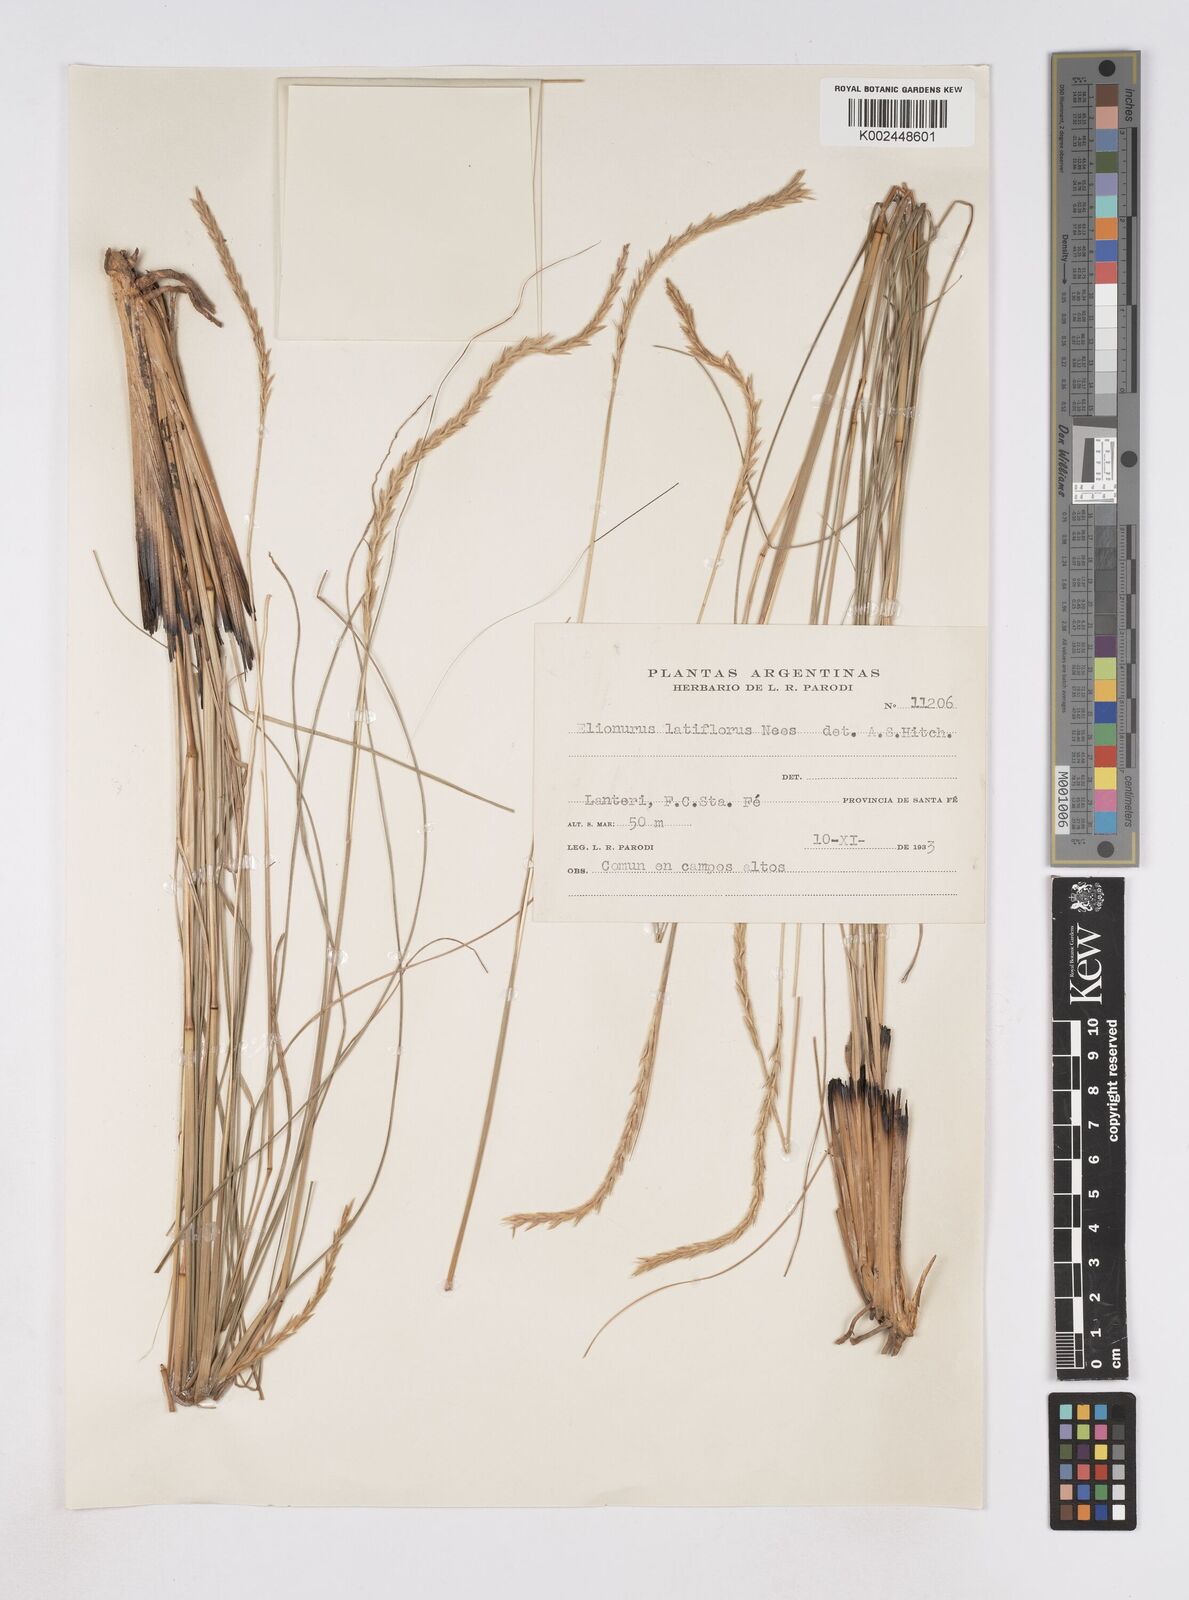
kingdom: Plantae
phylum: Tracheophyta
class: Liliopsida
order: Poales
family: Poaceae
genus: Elionurus
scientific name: Elionurus muticus
